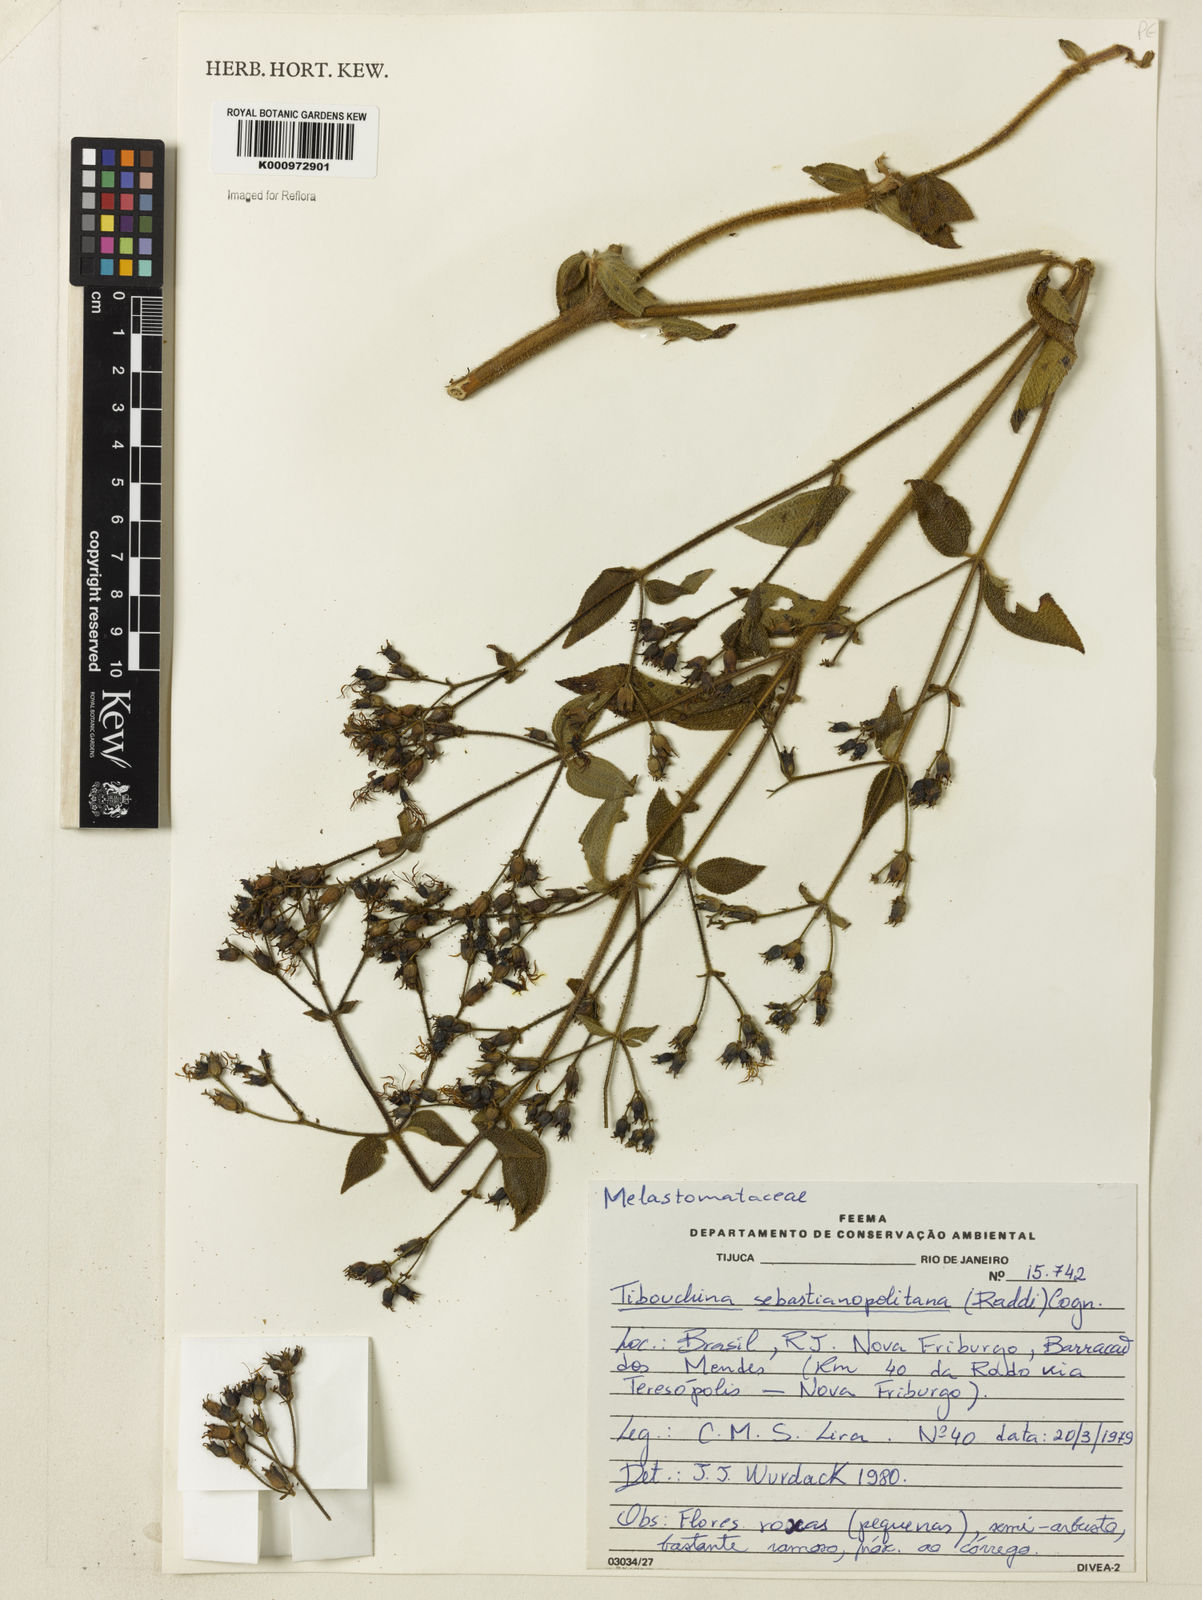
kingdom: Plantae
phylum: Tracheophyta
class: Magnoliopsida
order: Myrtales
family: Melastomataceae
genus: Chaetogastra
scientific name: Chaetogastra sebastianopolitana
